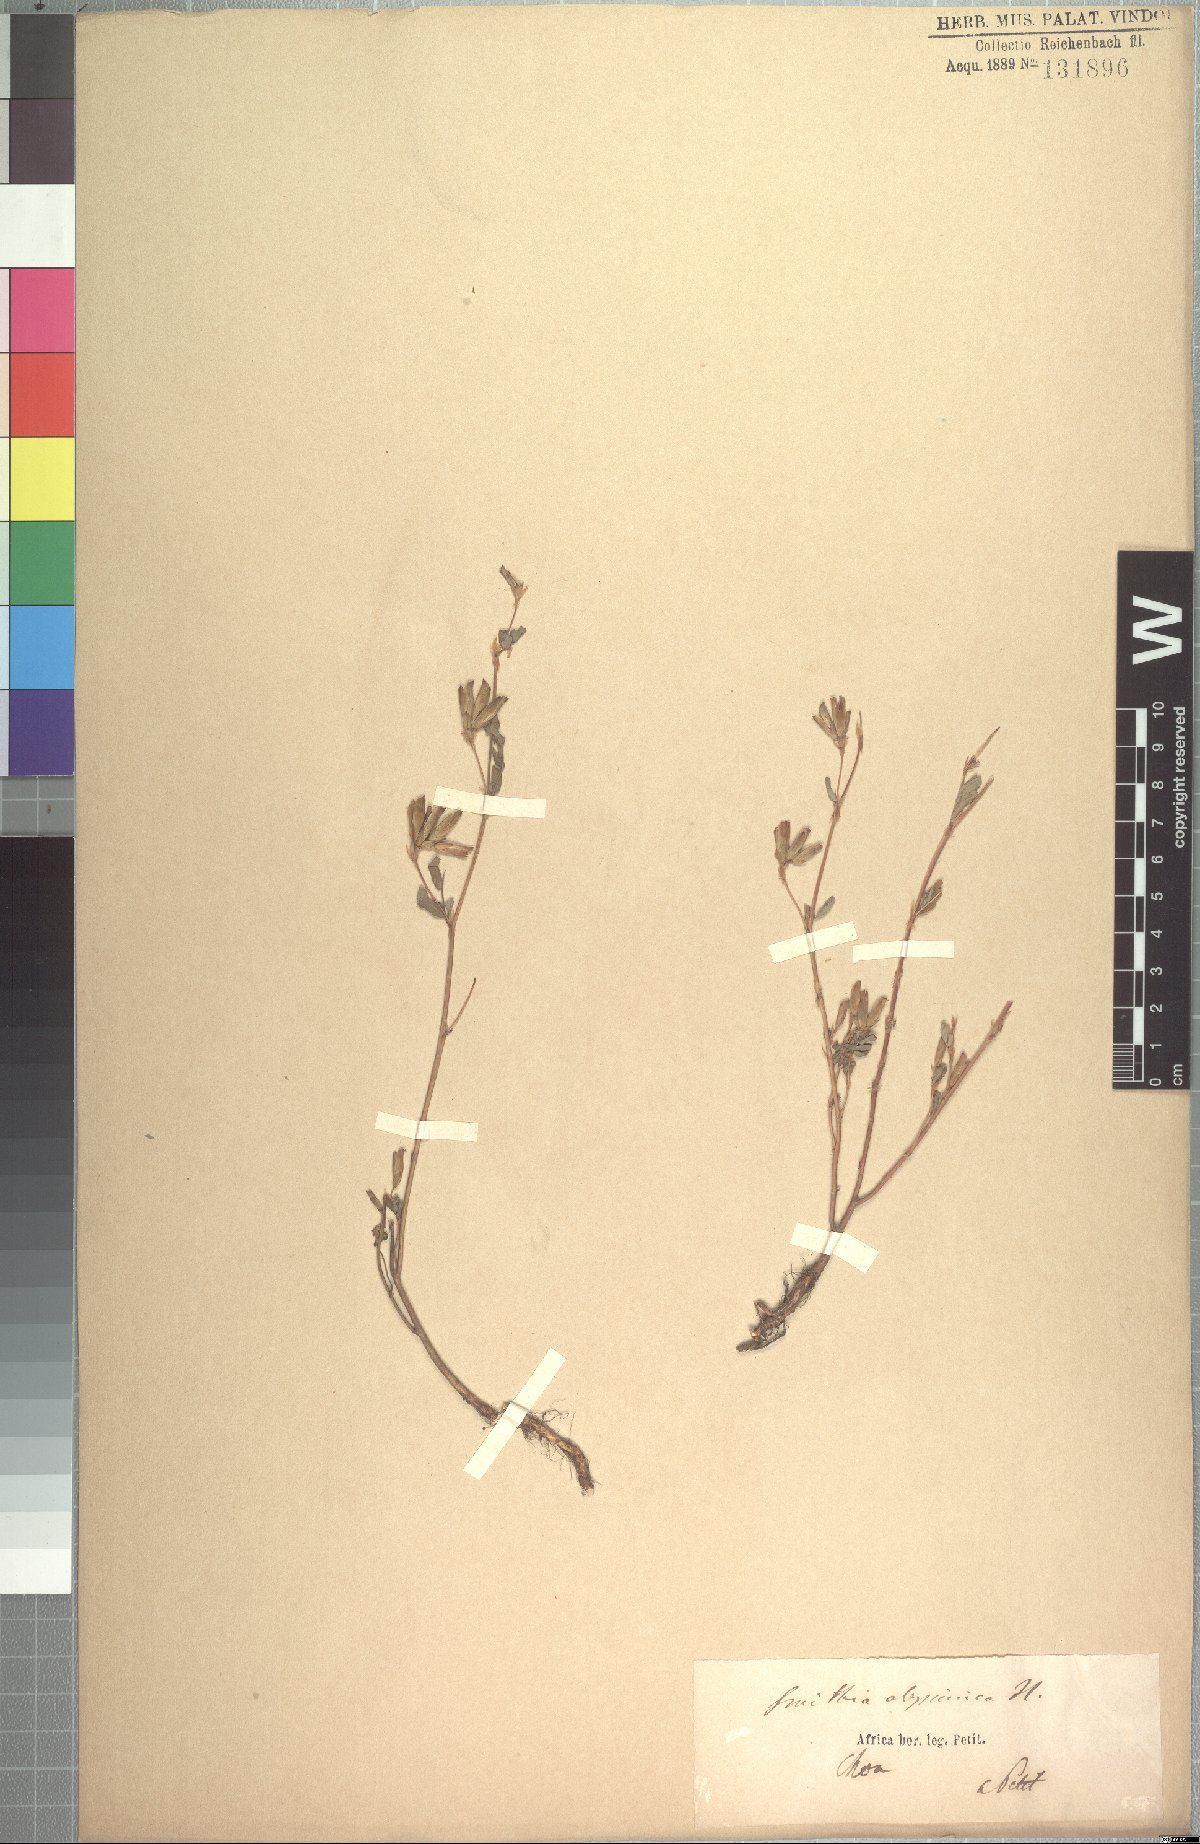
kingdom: Plantae
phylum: Tracheophyta
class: Magnoliopsida
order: Fabales
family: Fabaceae
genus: Smithia
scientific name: Smithia abyssinica
